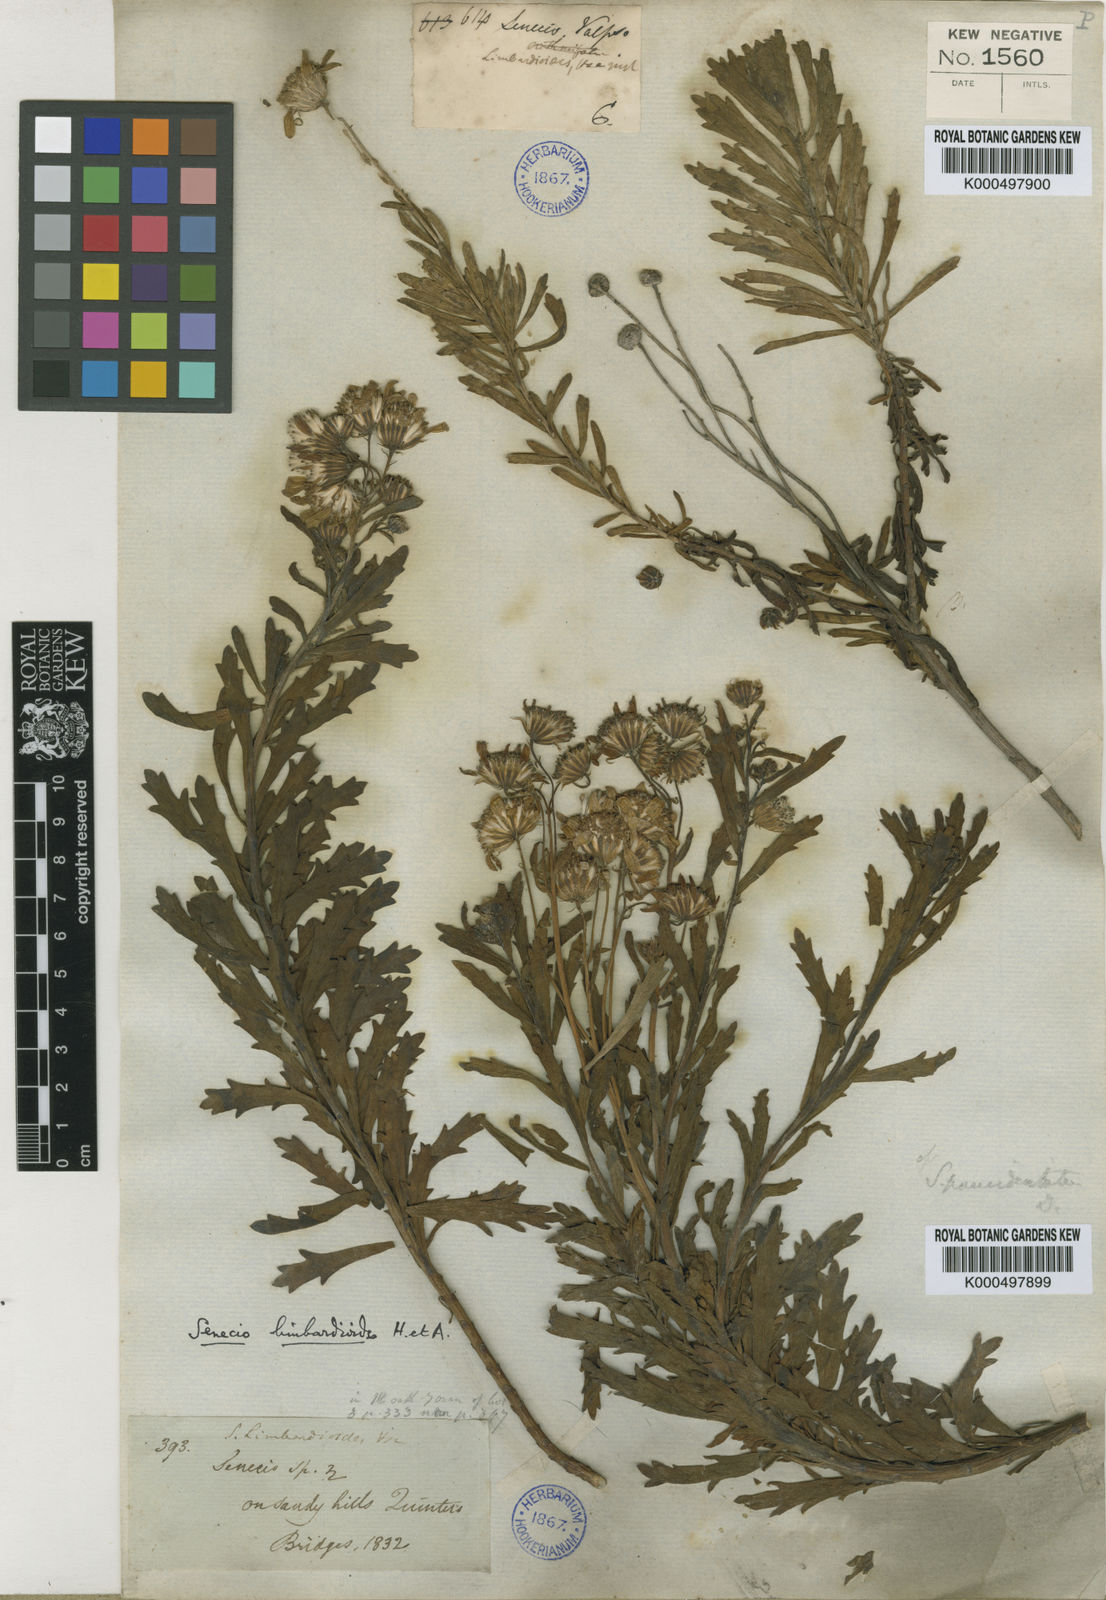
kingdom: Plantae
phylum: Tracheophyta
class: Magnoliopsida
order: Asterales
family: Asteraceae
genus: Senecio
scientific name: Senecio paucidentatus
